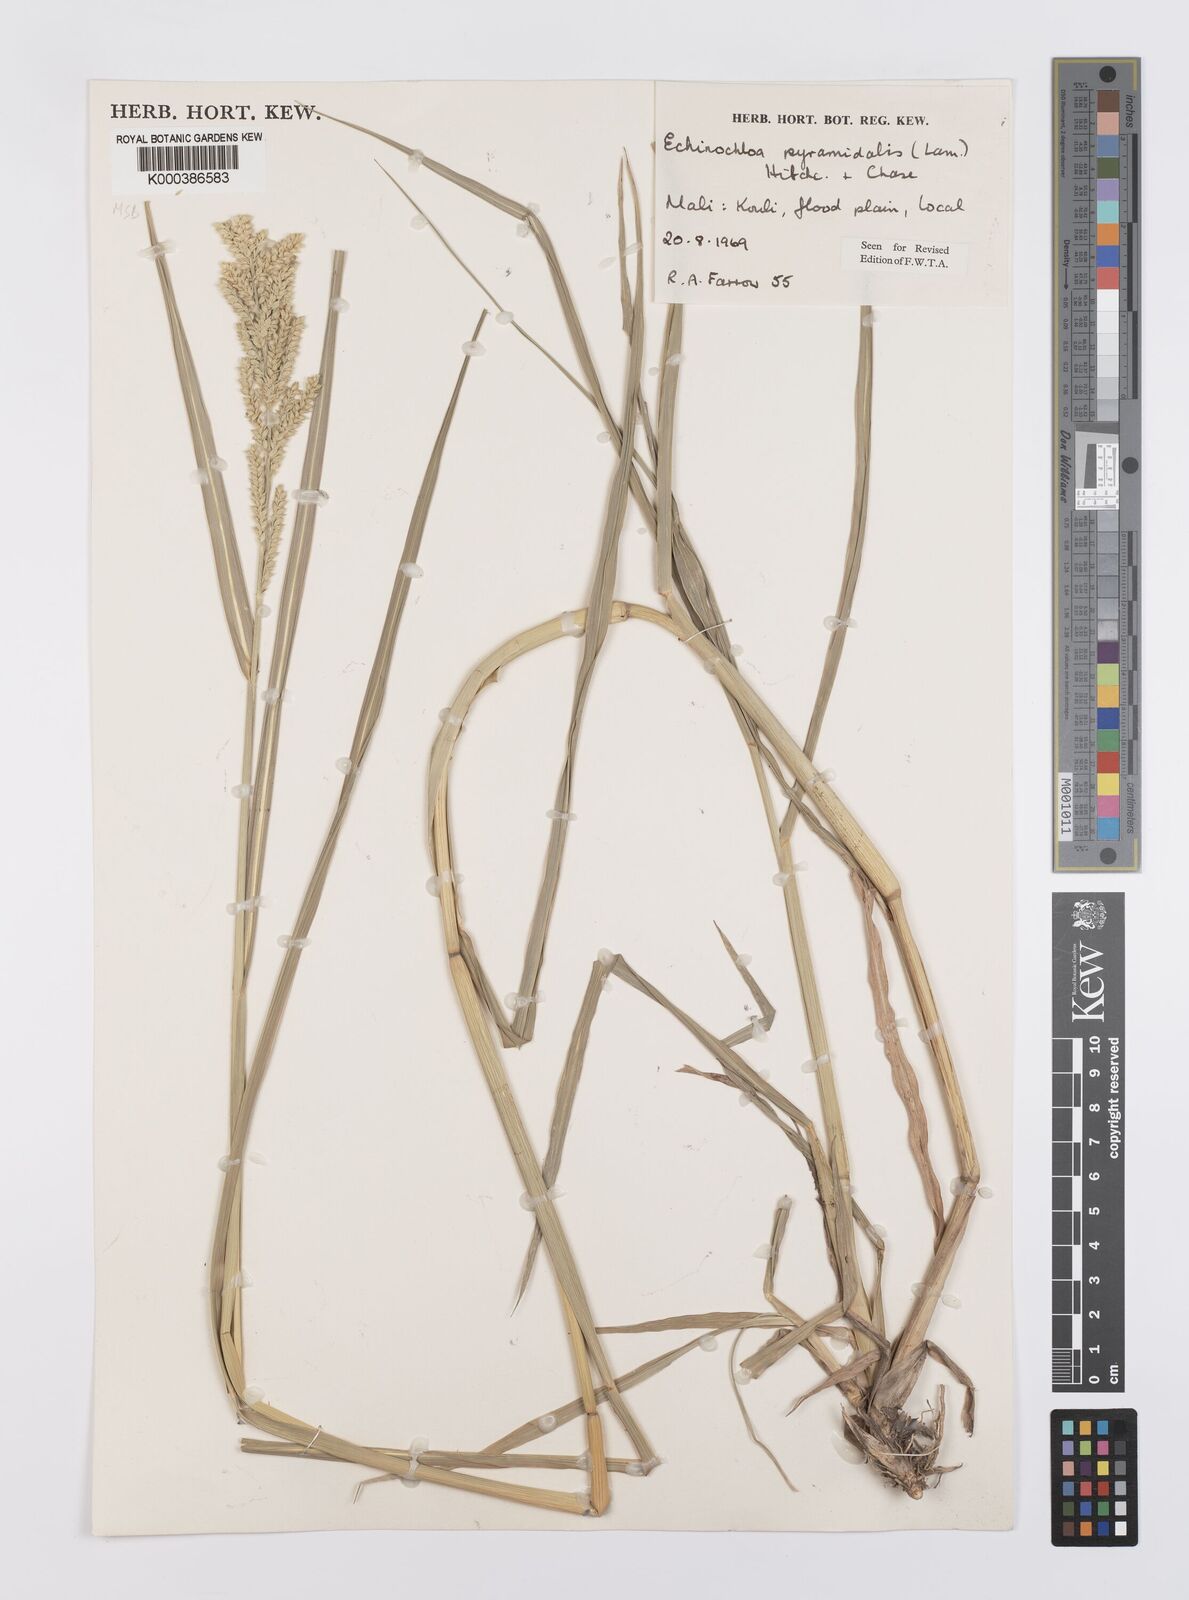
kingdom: Plantae
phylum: Tracheophyta
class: Liliopsida
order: Poales
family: Poaceae
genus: Echinochloa
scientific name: Echinochloa pyramidalis
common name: Antelope grass
